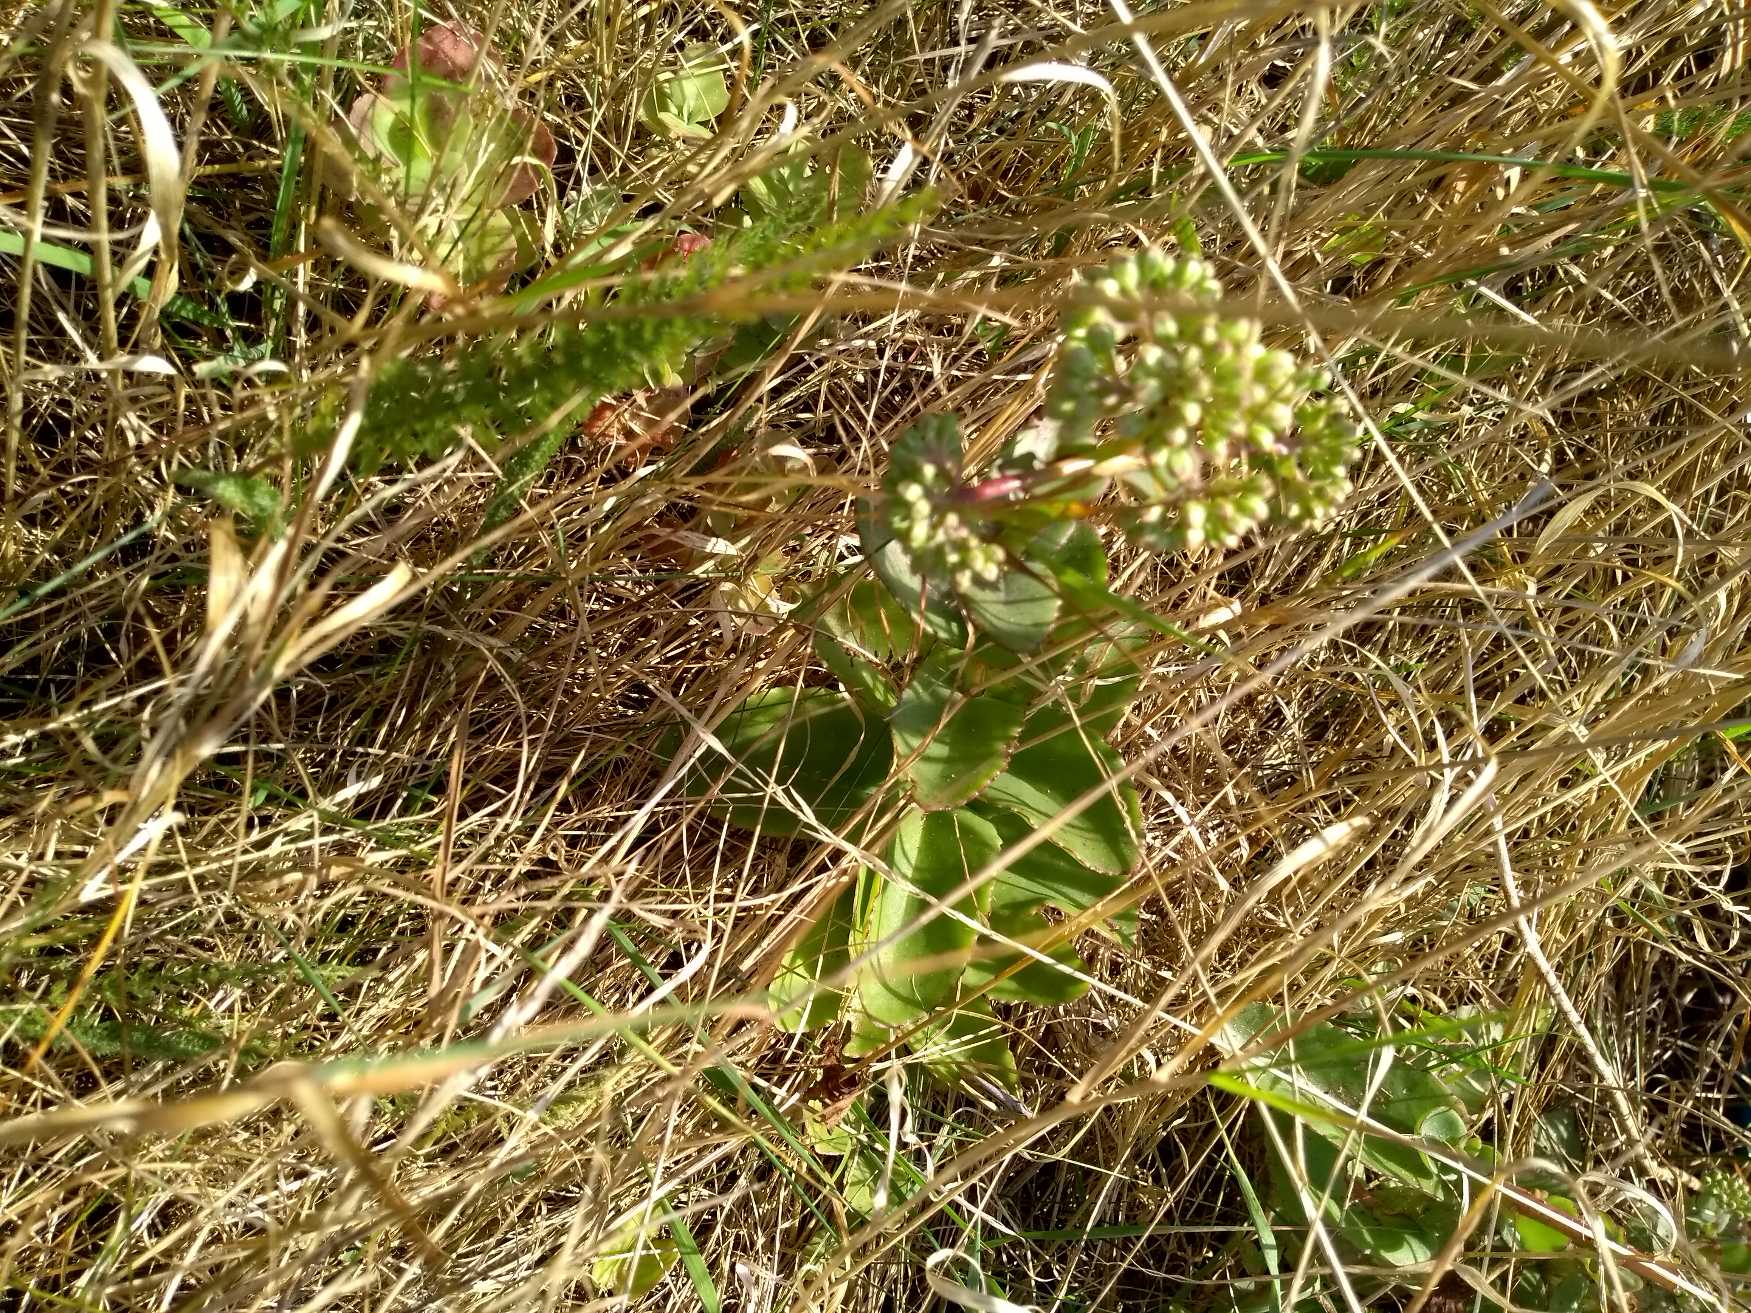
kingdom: Plantae
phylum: Tracheophyta
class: Magnoliopsida
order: Saxifragales
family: Crassulaceae
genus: Hylotelephium
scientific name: Hylotelephium maximum
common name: Almindelig sankthansurt
